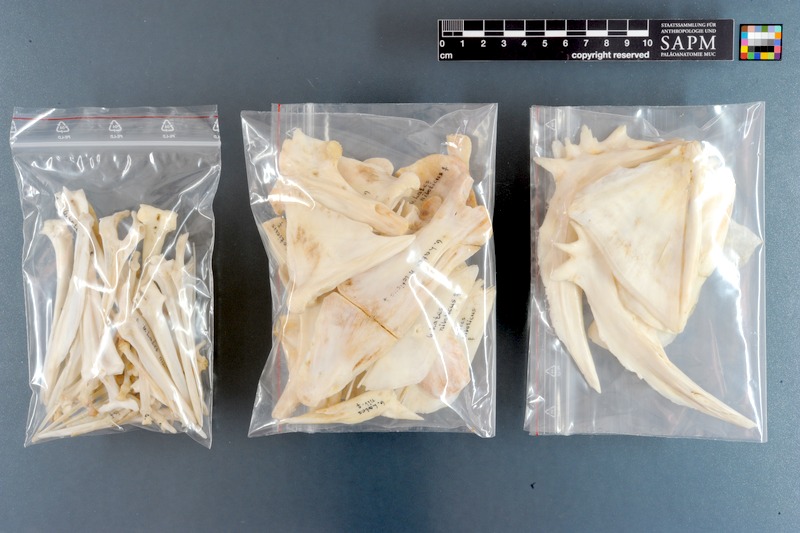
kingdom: Animalia
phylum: Chordata
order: Perciformes
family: Latidae
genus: Lates
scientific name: Lates niloticus
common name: Nile perch
